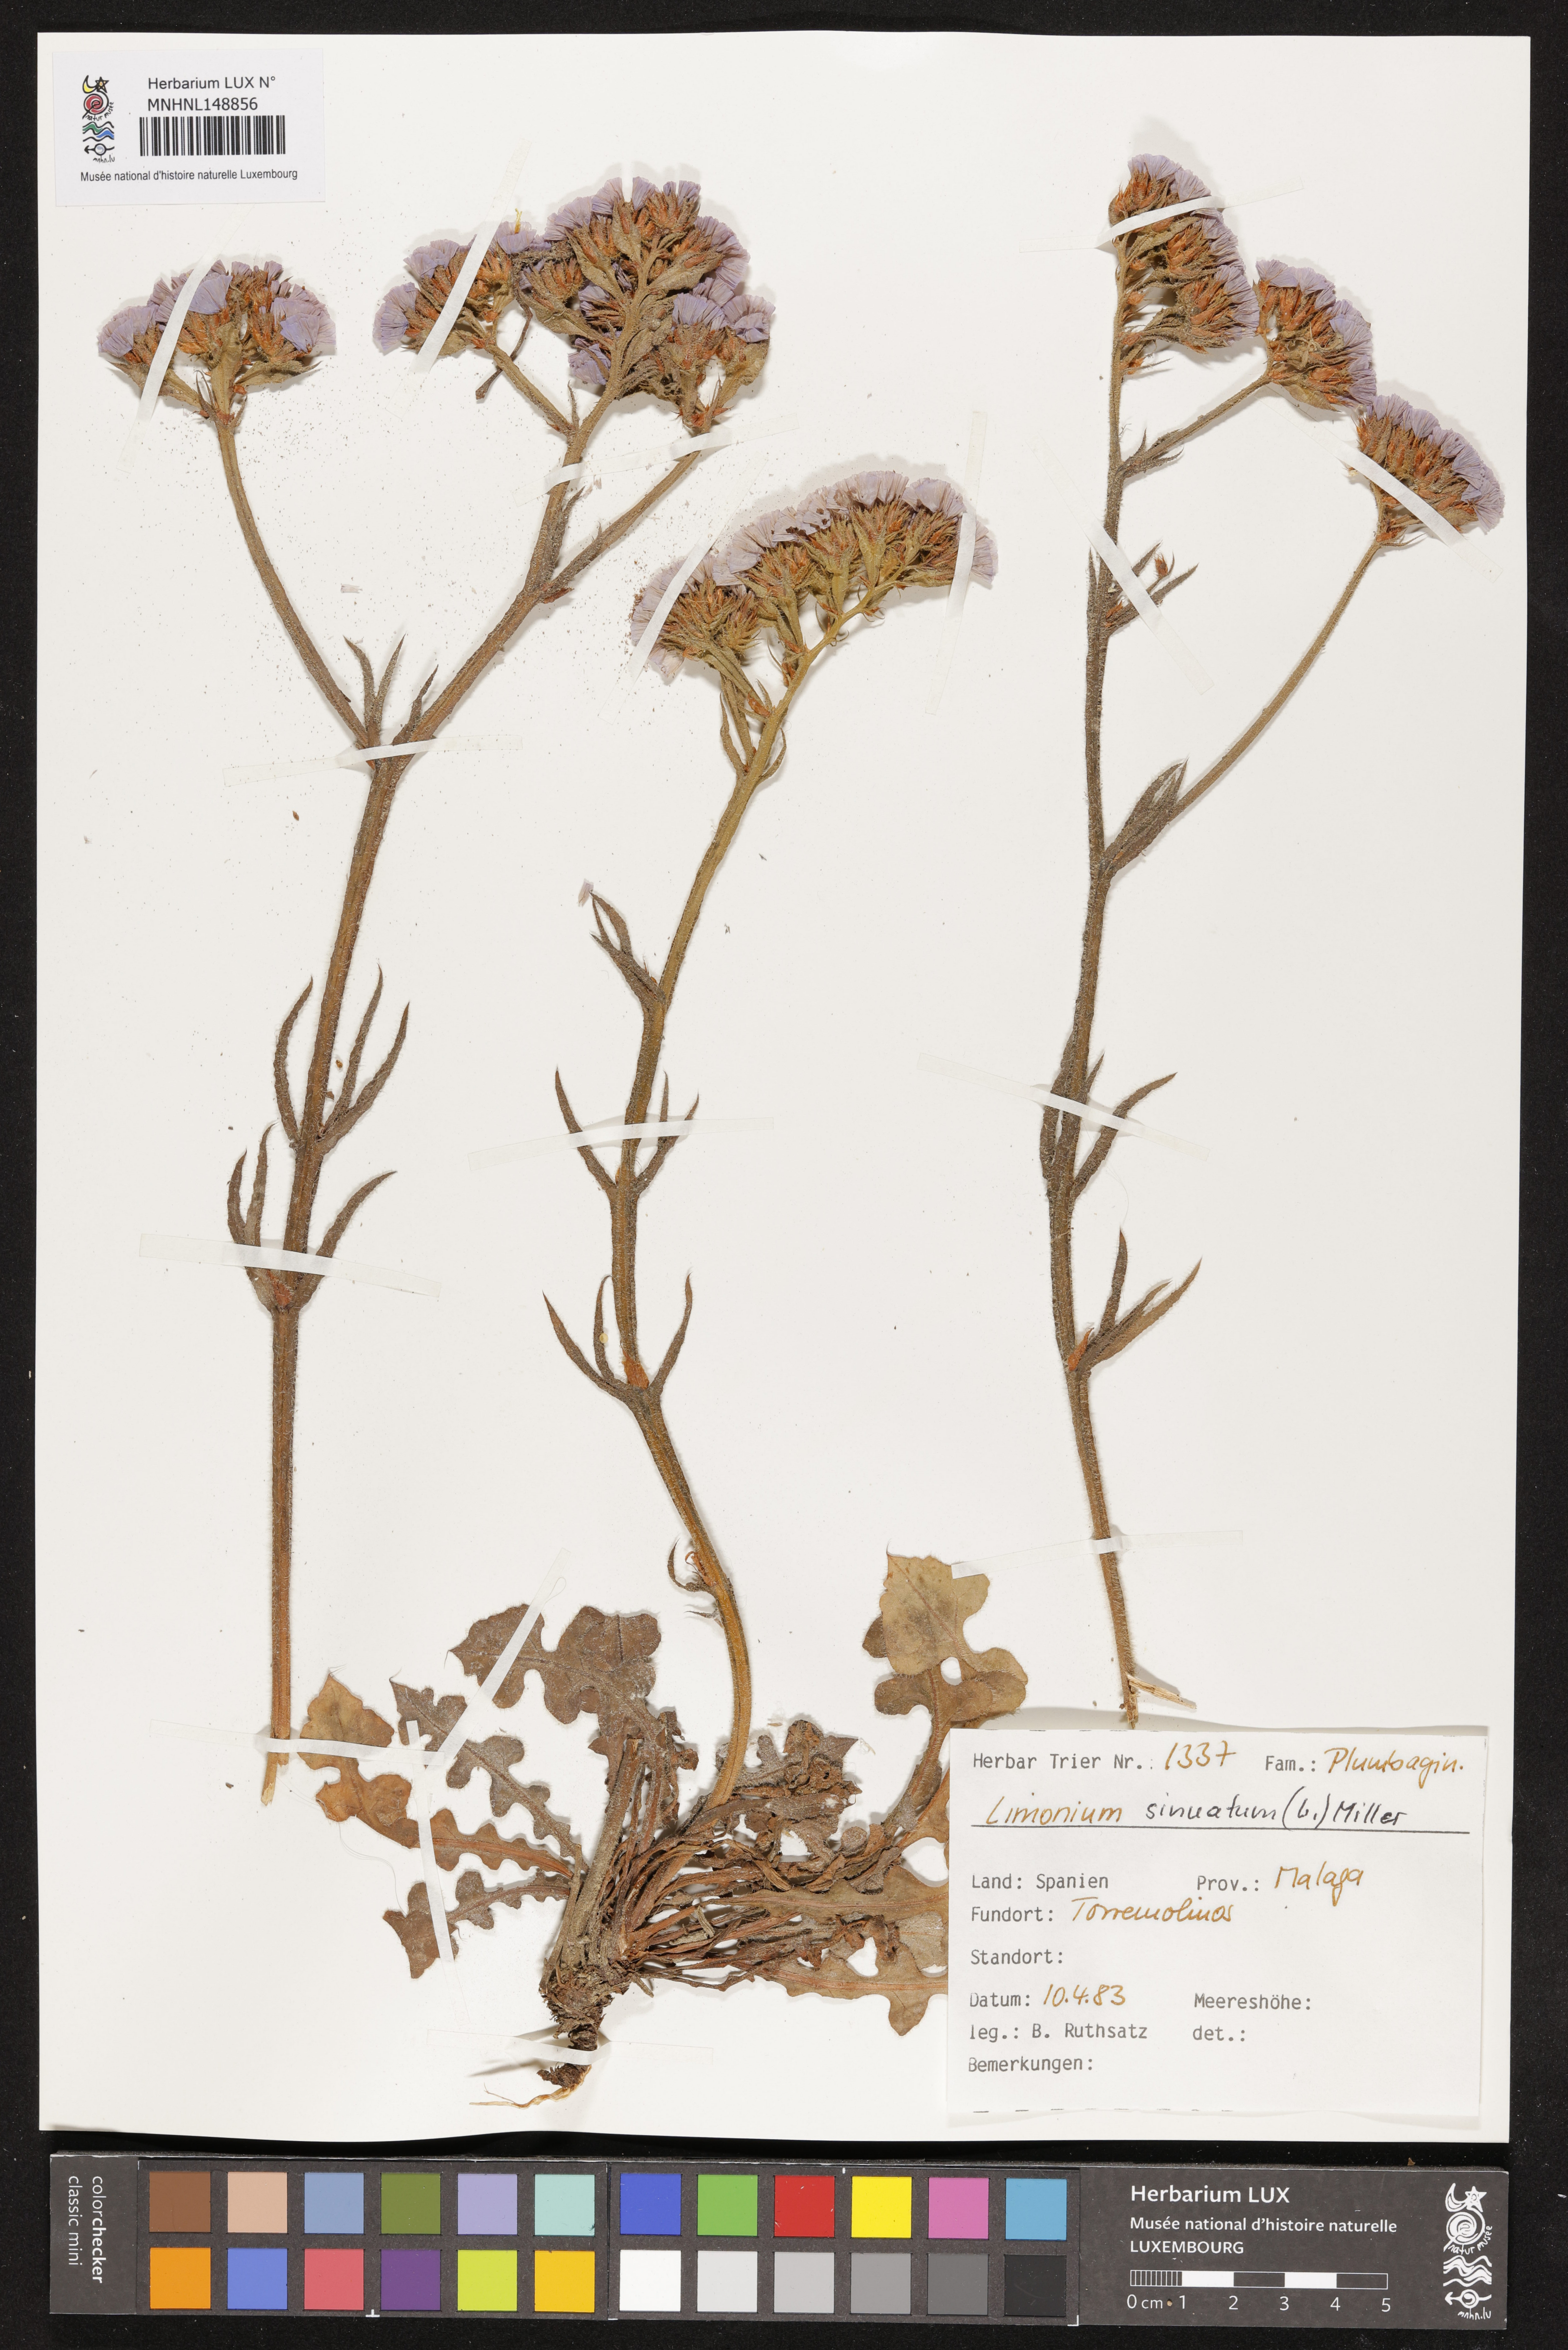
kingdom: Plantae
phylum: Tracheophyta
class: Magnoliopsida
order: Caryophyllales
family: Plumbaginaceae
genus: Limonium
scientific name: Limonium sinuatum
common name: Statice
